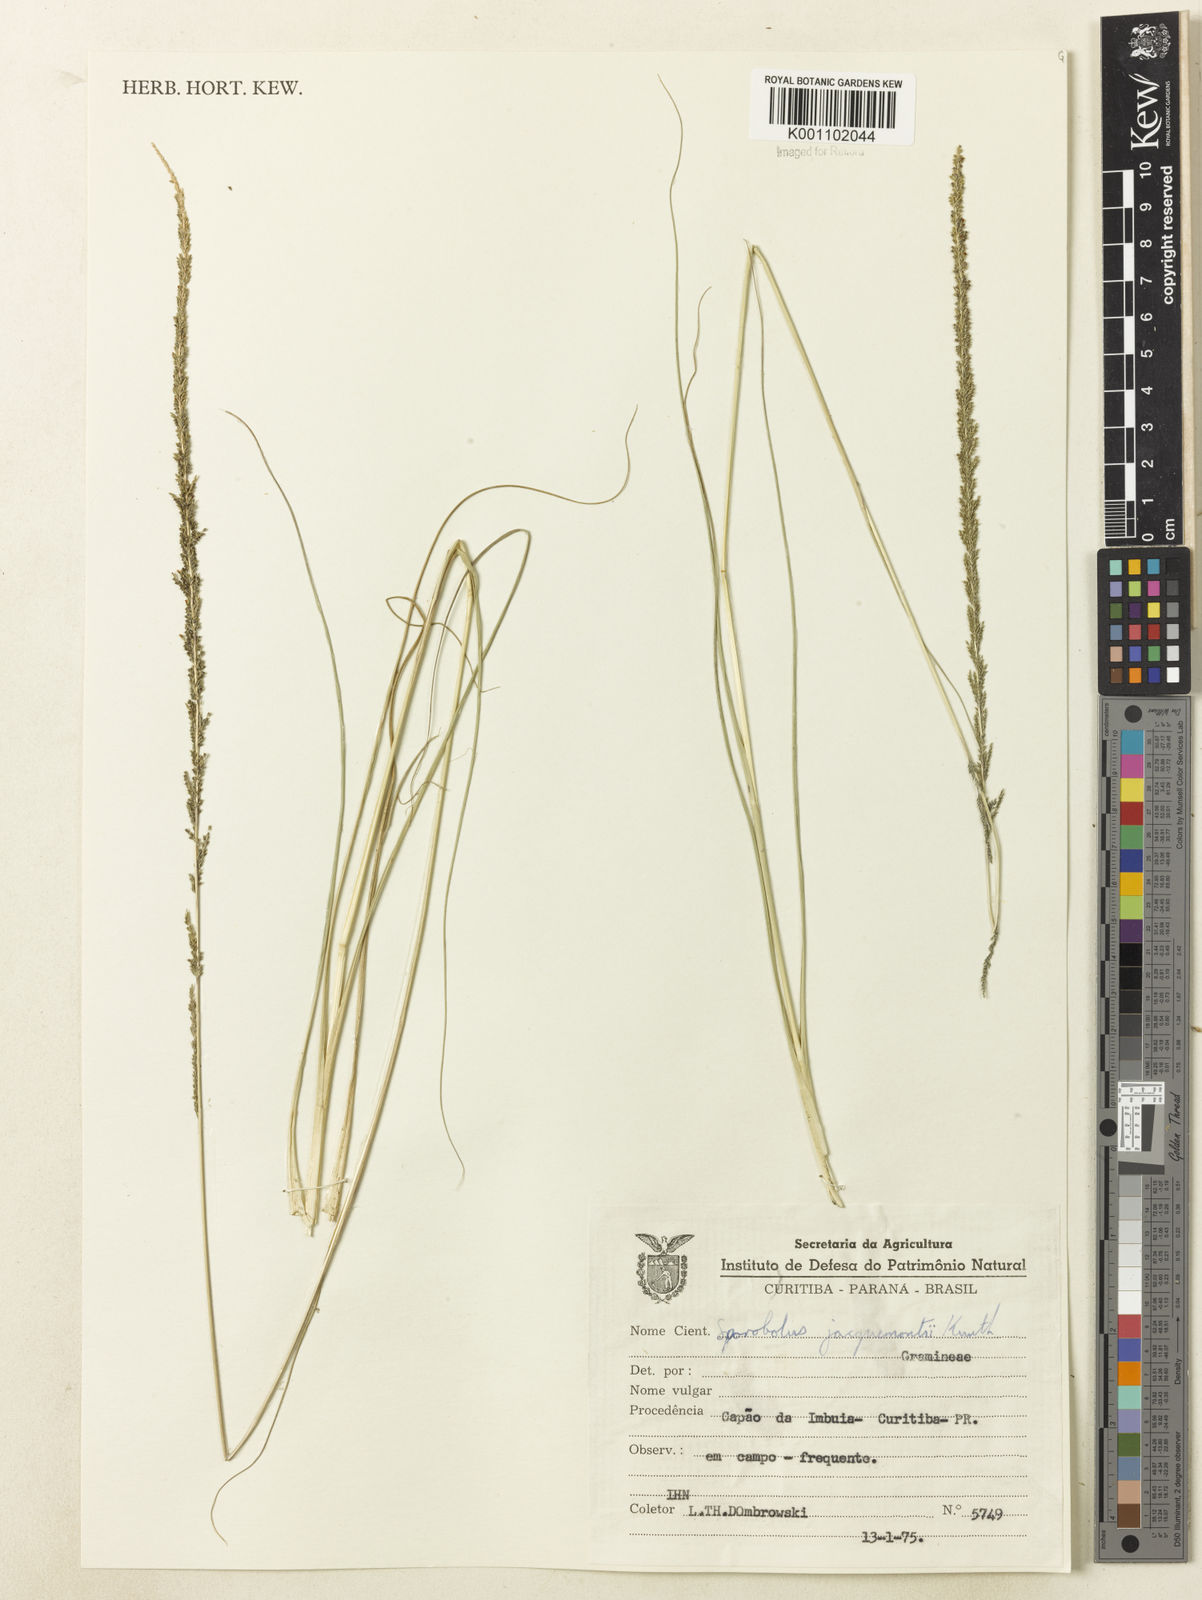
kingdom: Plantae
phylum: Tracheophyta
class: Liliopsida
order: Poales
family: Poaceae
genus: Sporobolus
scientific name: Sporobolus pyramidalis
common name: West indian dropseed
